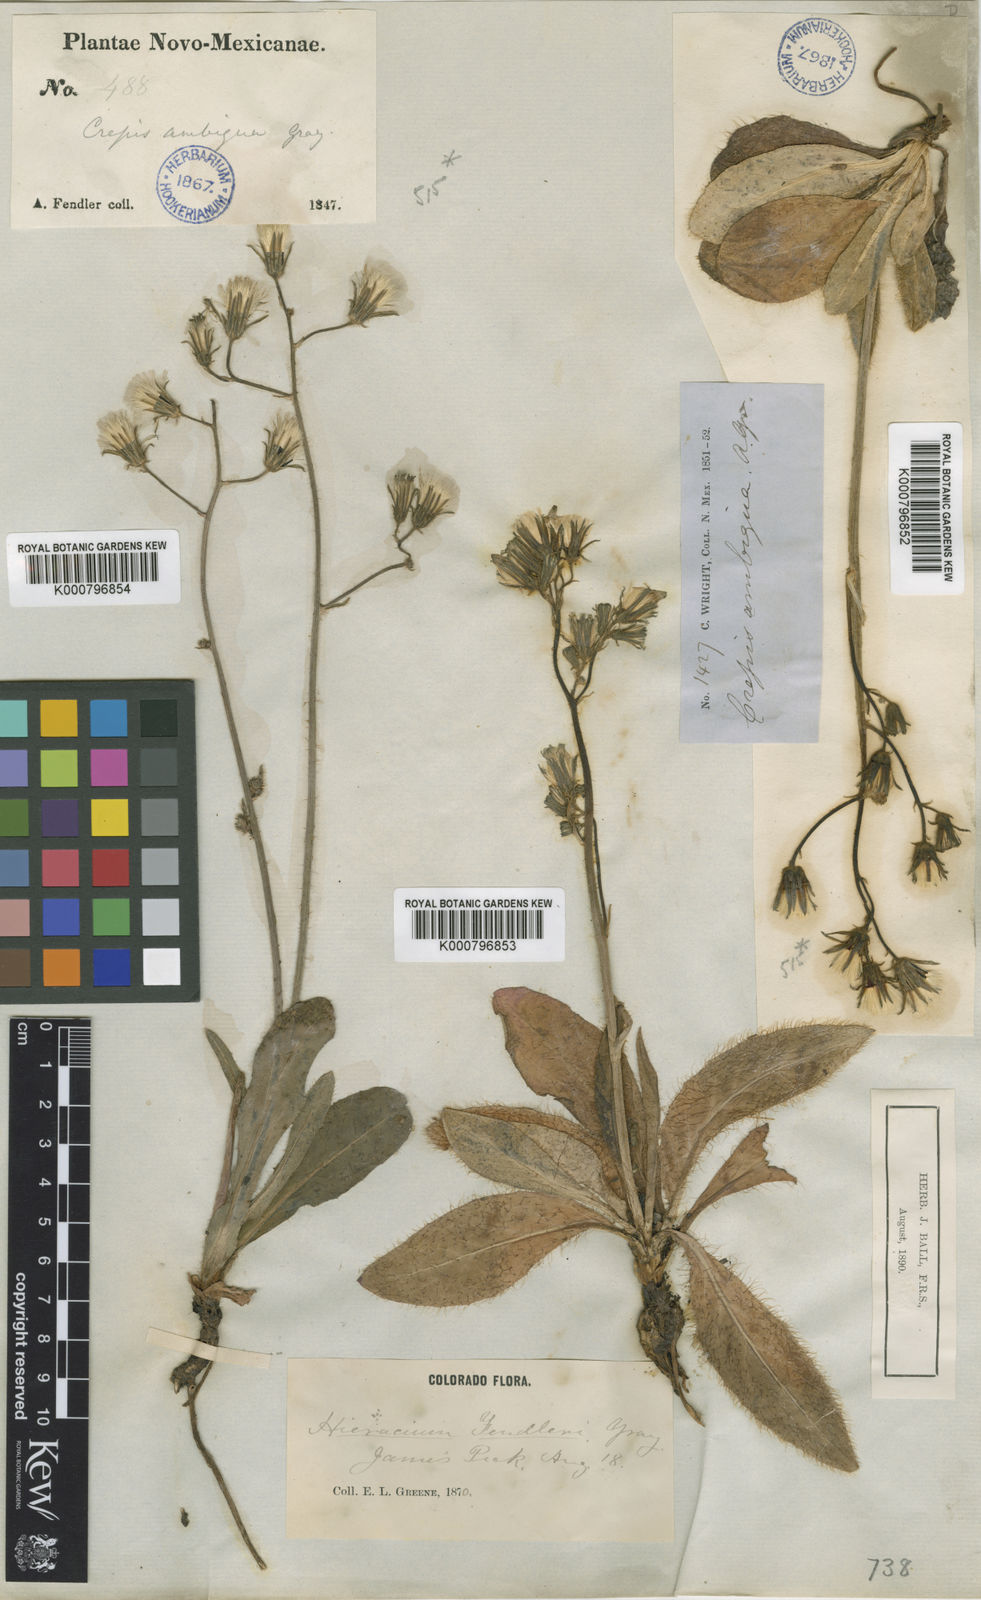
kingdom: Plantae
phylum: Tracheophyta
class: Magnoliopsida
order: Asterales
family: Asteraceae
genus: Hieracium
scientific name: Hieracium fendleri
